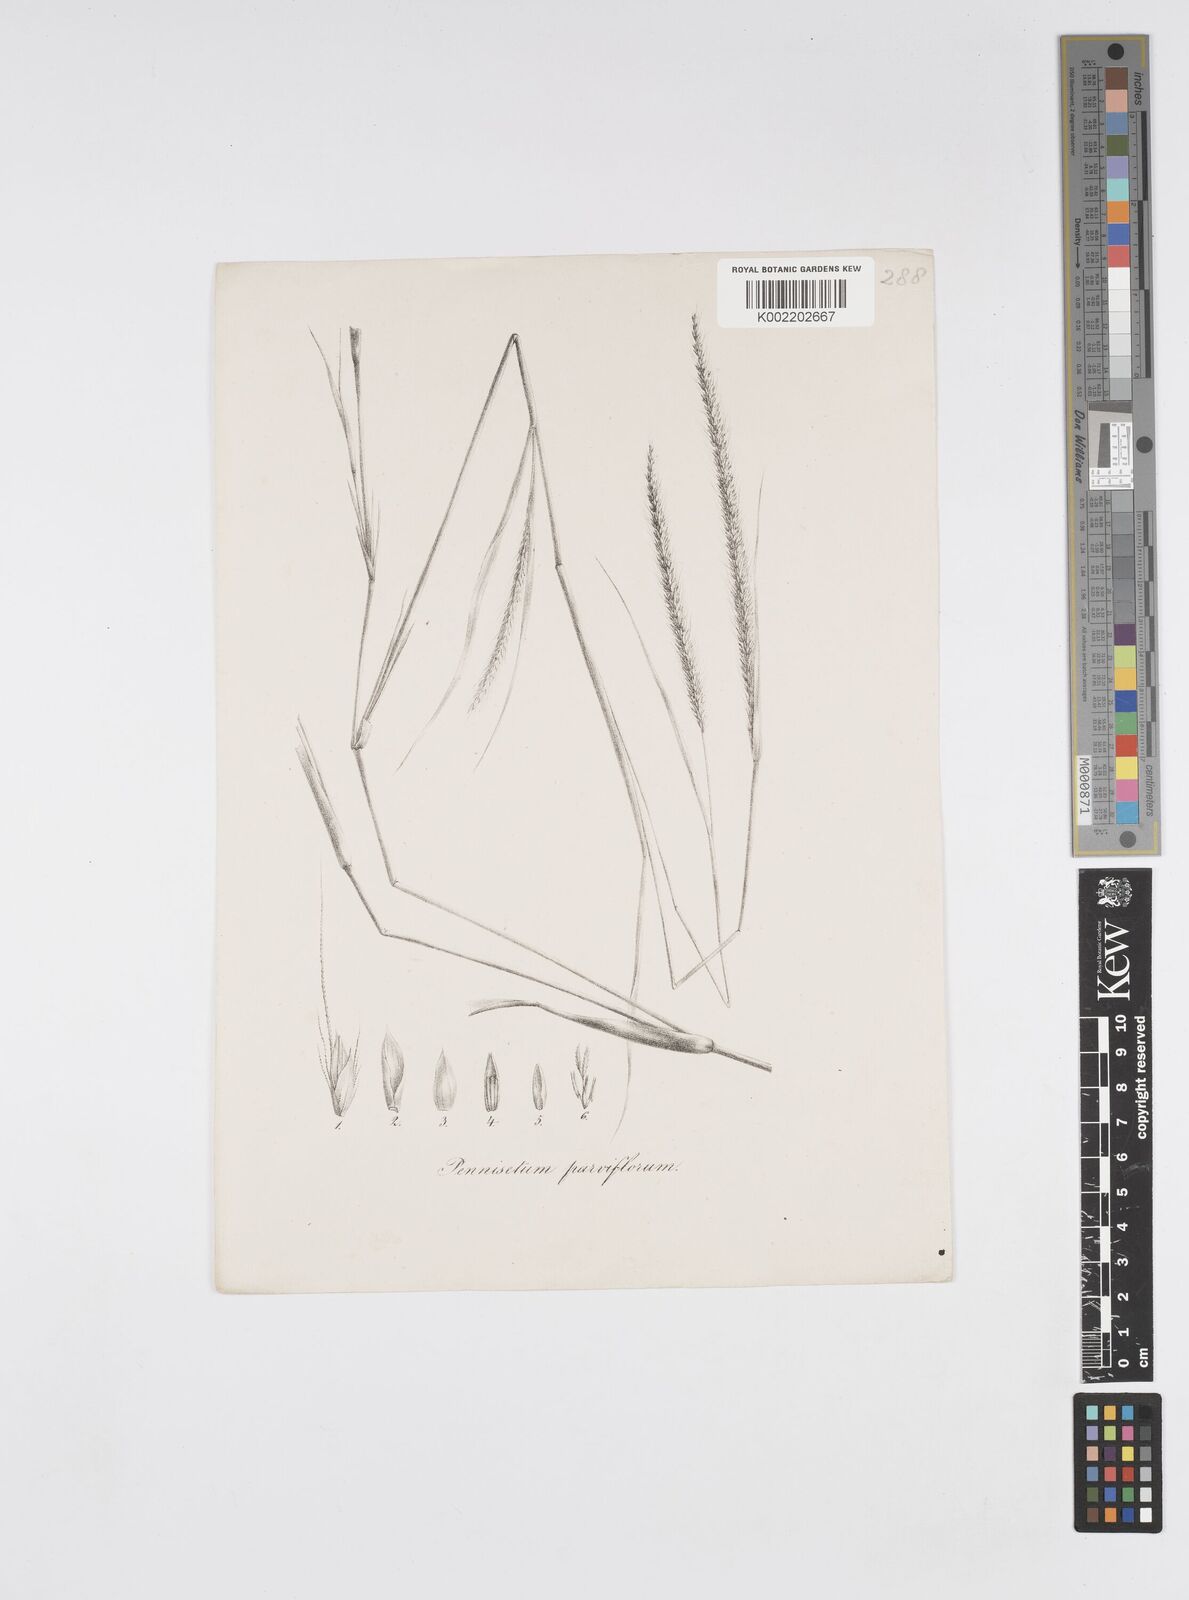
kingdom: Plantae
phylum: Tracheophyta
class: Liliopsida
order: Poales
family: Poaceae
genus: Cenchrus
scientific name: Cenchrus hordeoides
